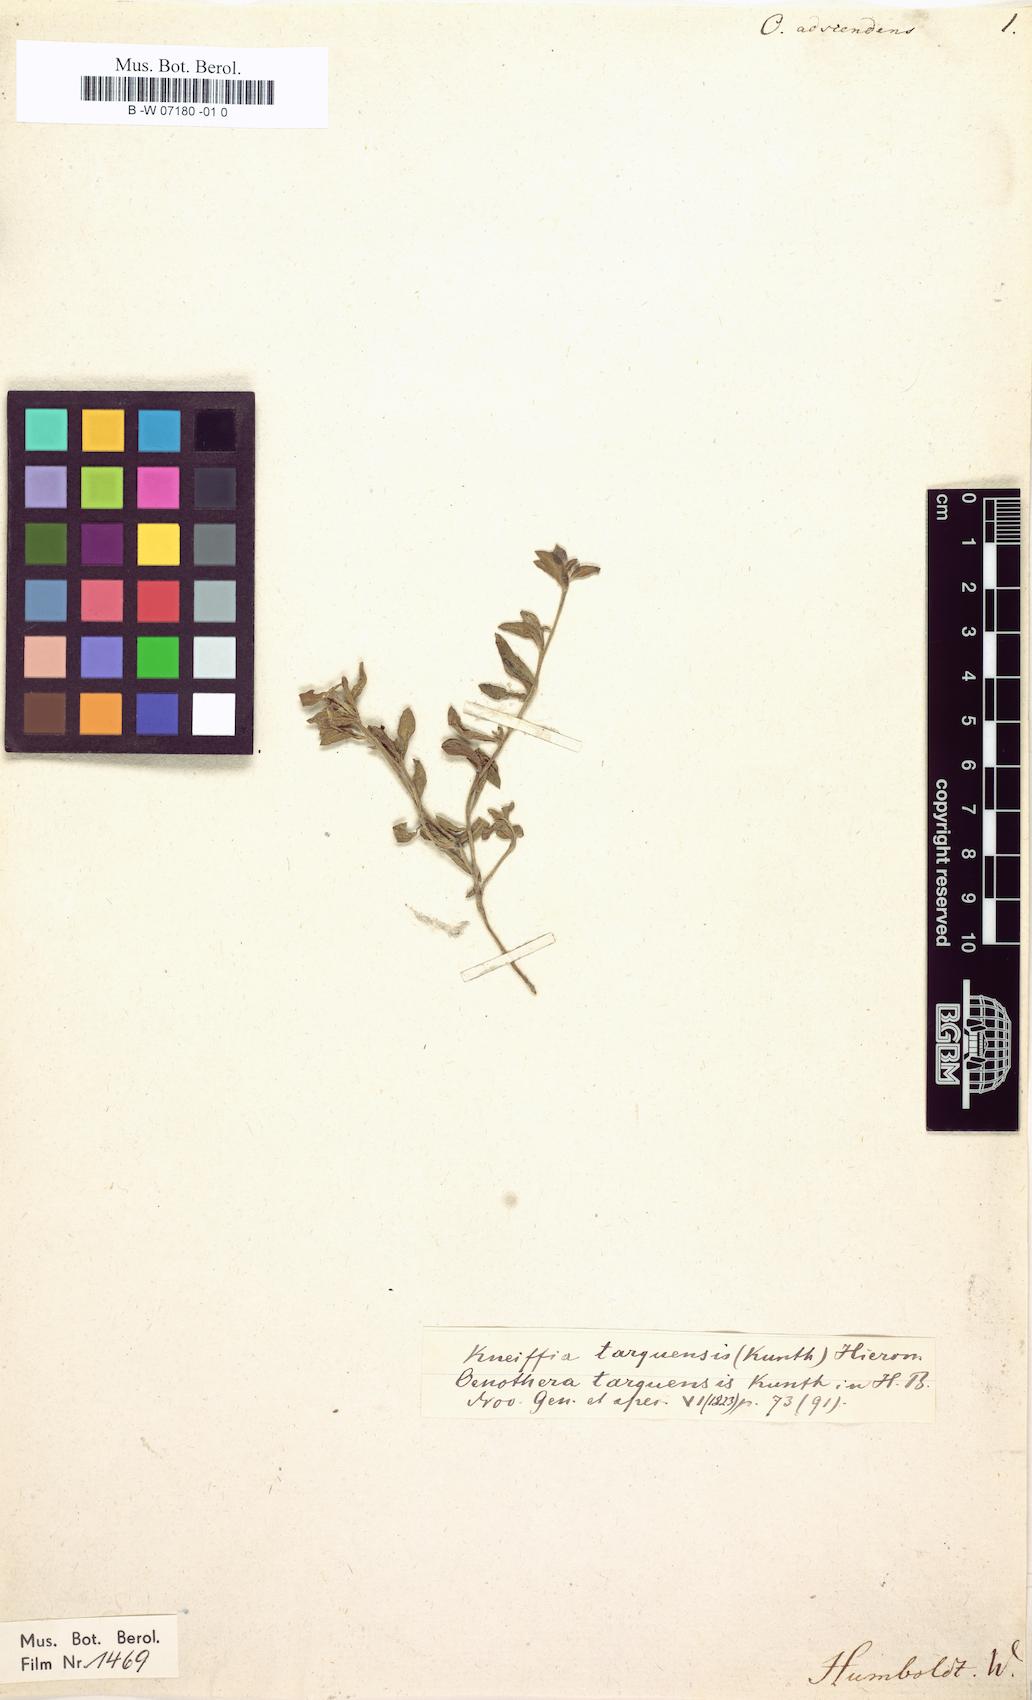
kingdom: Plantae
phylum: Tracheophyta
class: Magnoliopsida
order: Myrtales
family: Onagraceae
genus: Oenothera
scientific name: Oenothera epilobiifolia
